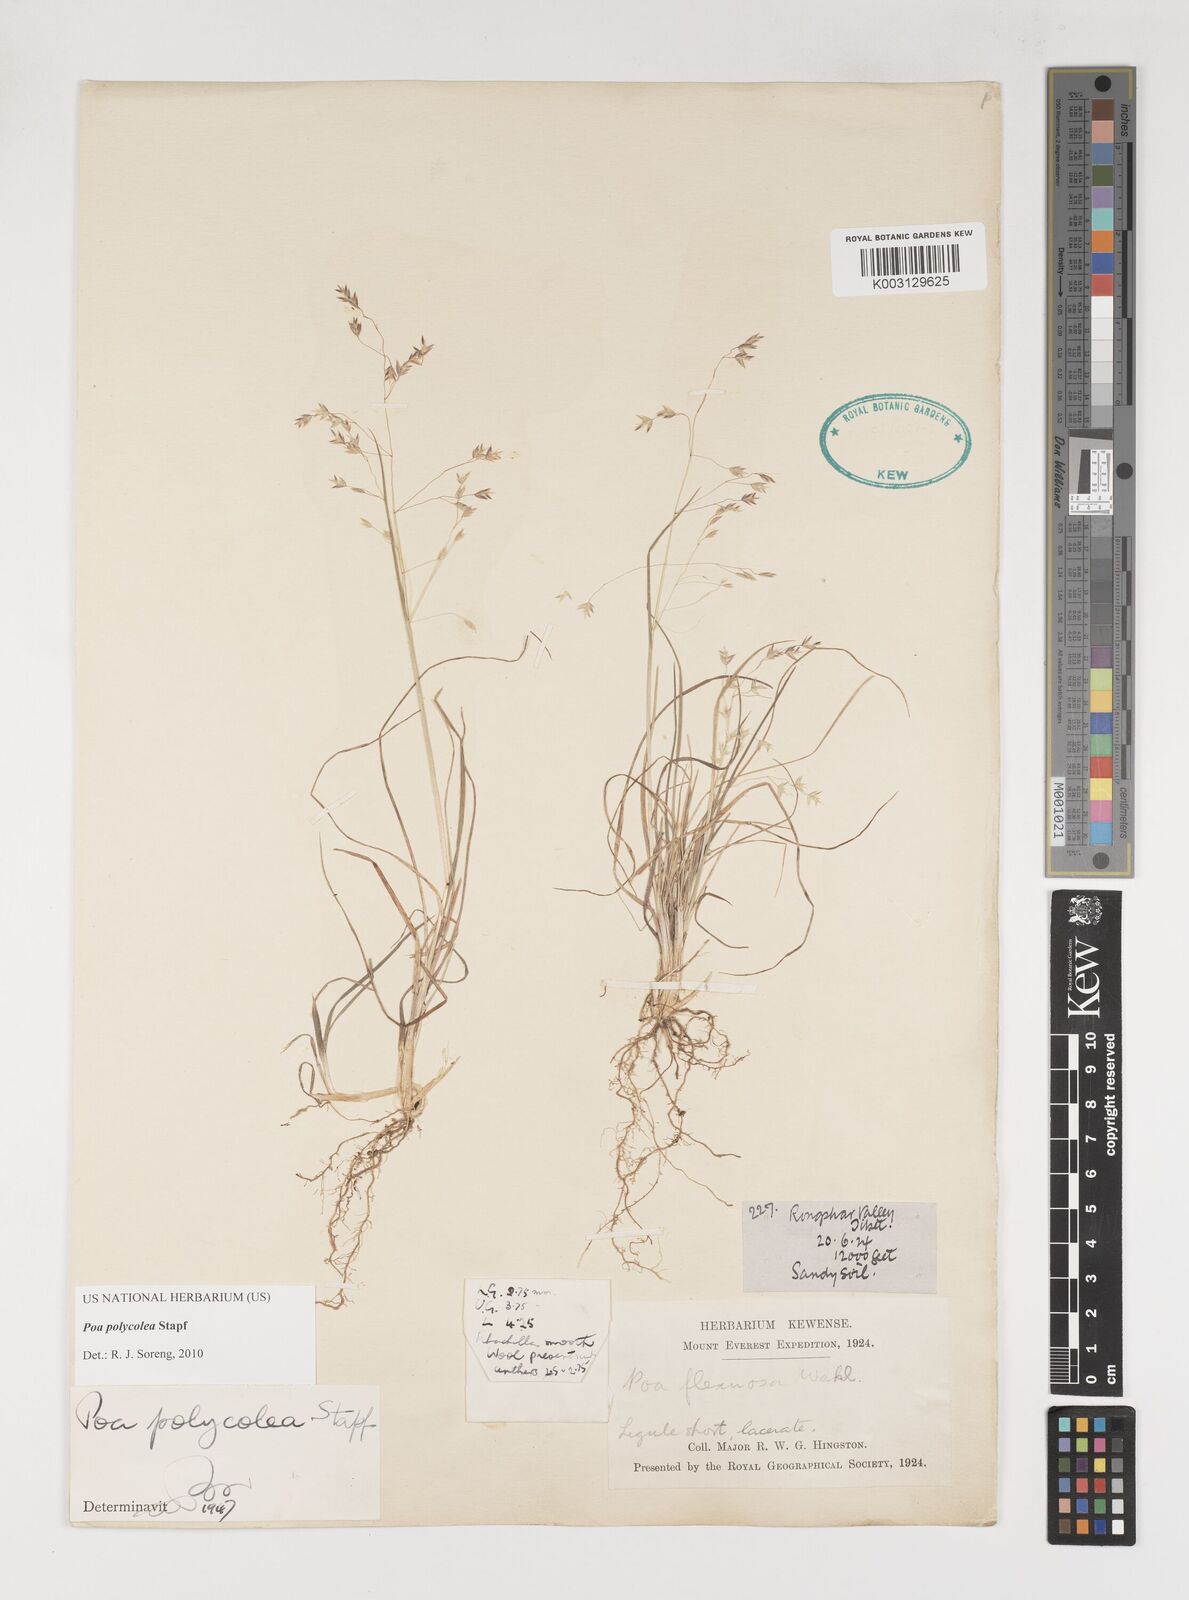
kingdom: Plantae
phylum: Tracheophyta
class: Liliopsida
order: Poales
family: Poaceae
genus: Poa
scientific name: Poa polycolea
